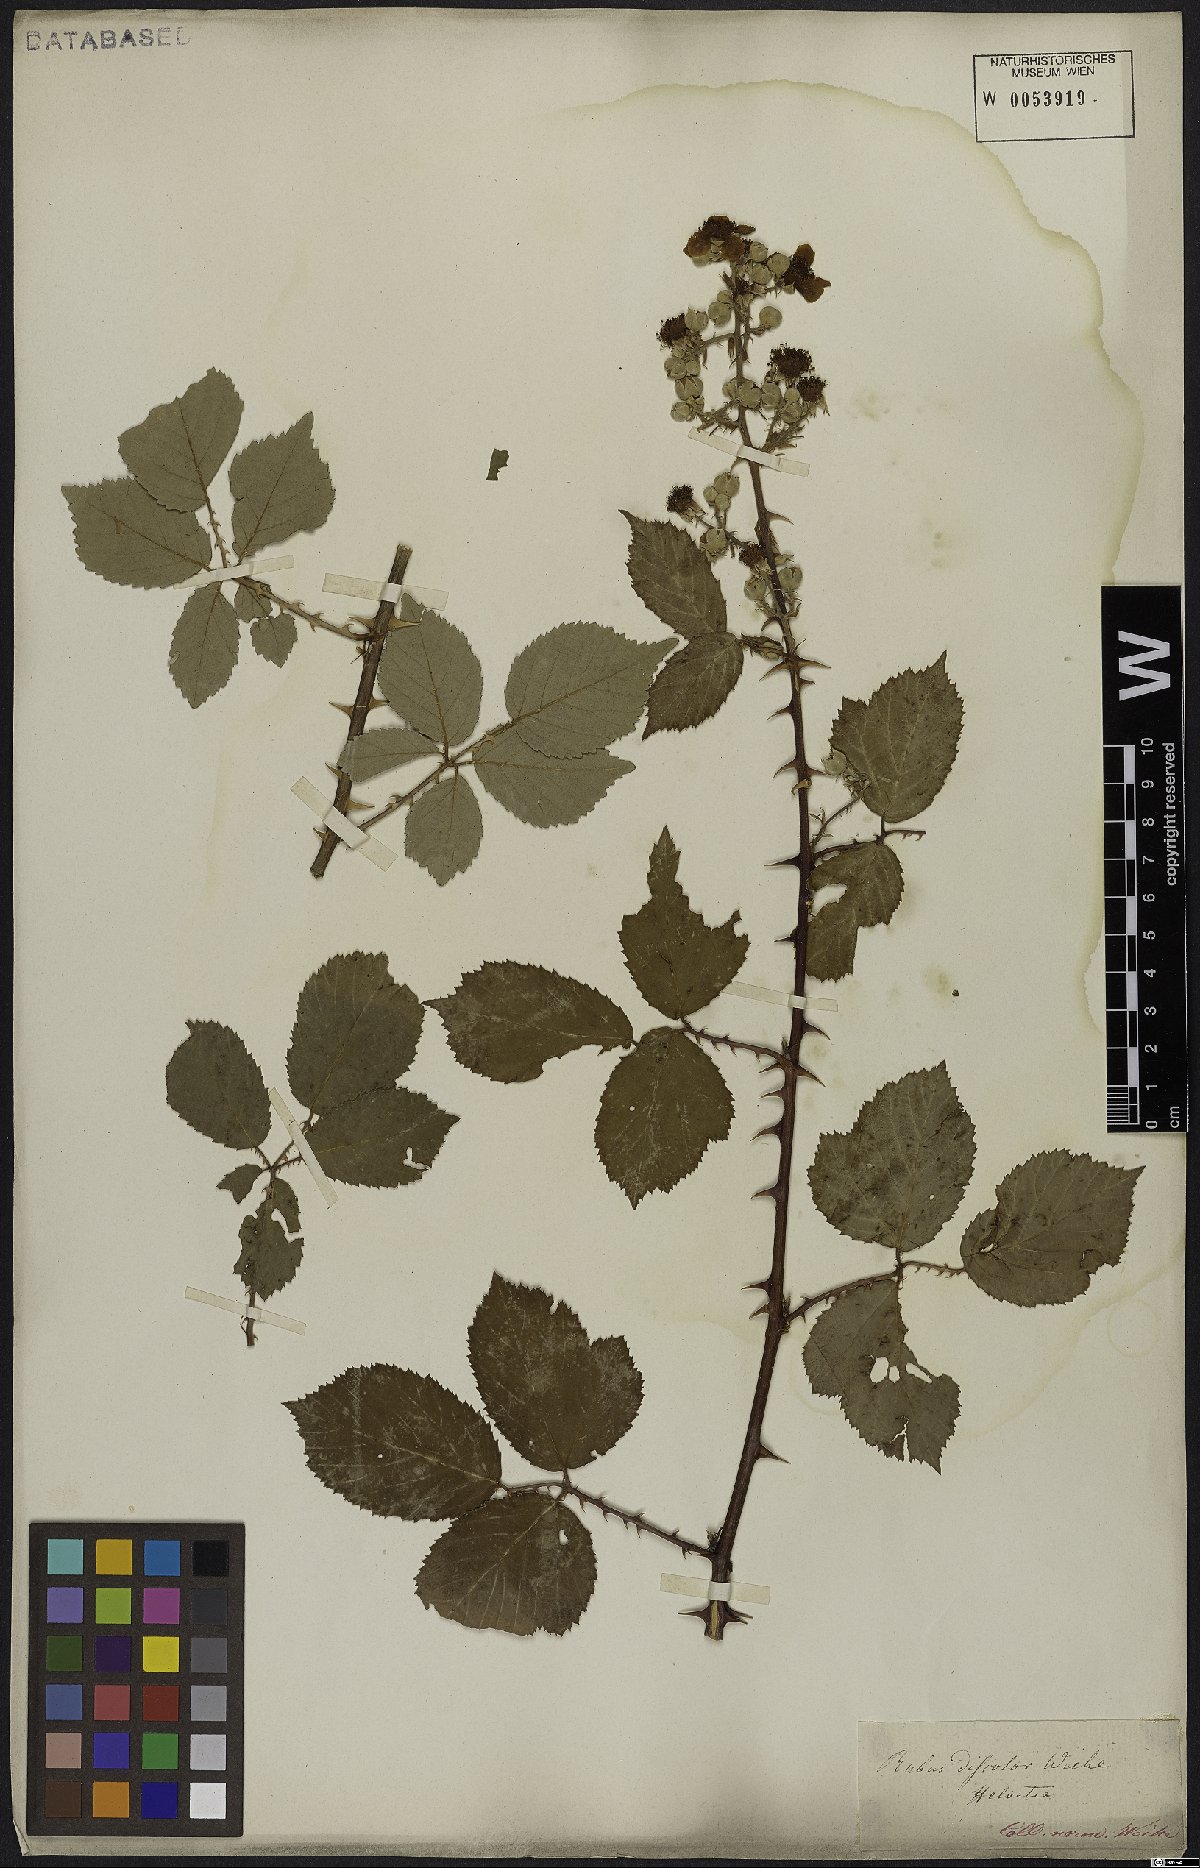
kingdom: Plantae
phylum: Tracheophyta
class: Magnoliopsida
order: Rosales
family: Rosaceae
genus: Rubus
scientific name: Rubus ulmifolius
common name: Elmleaf blackberry
